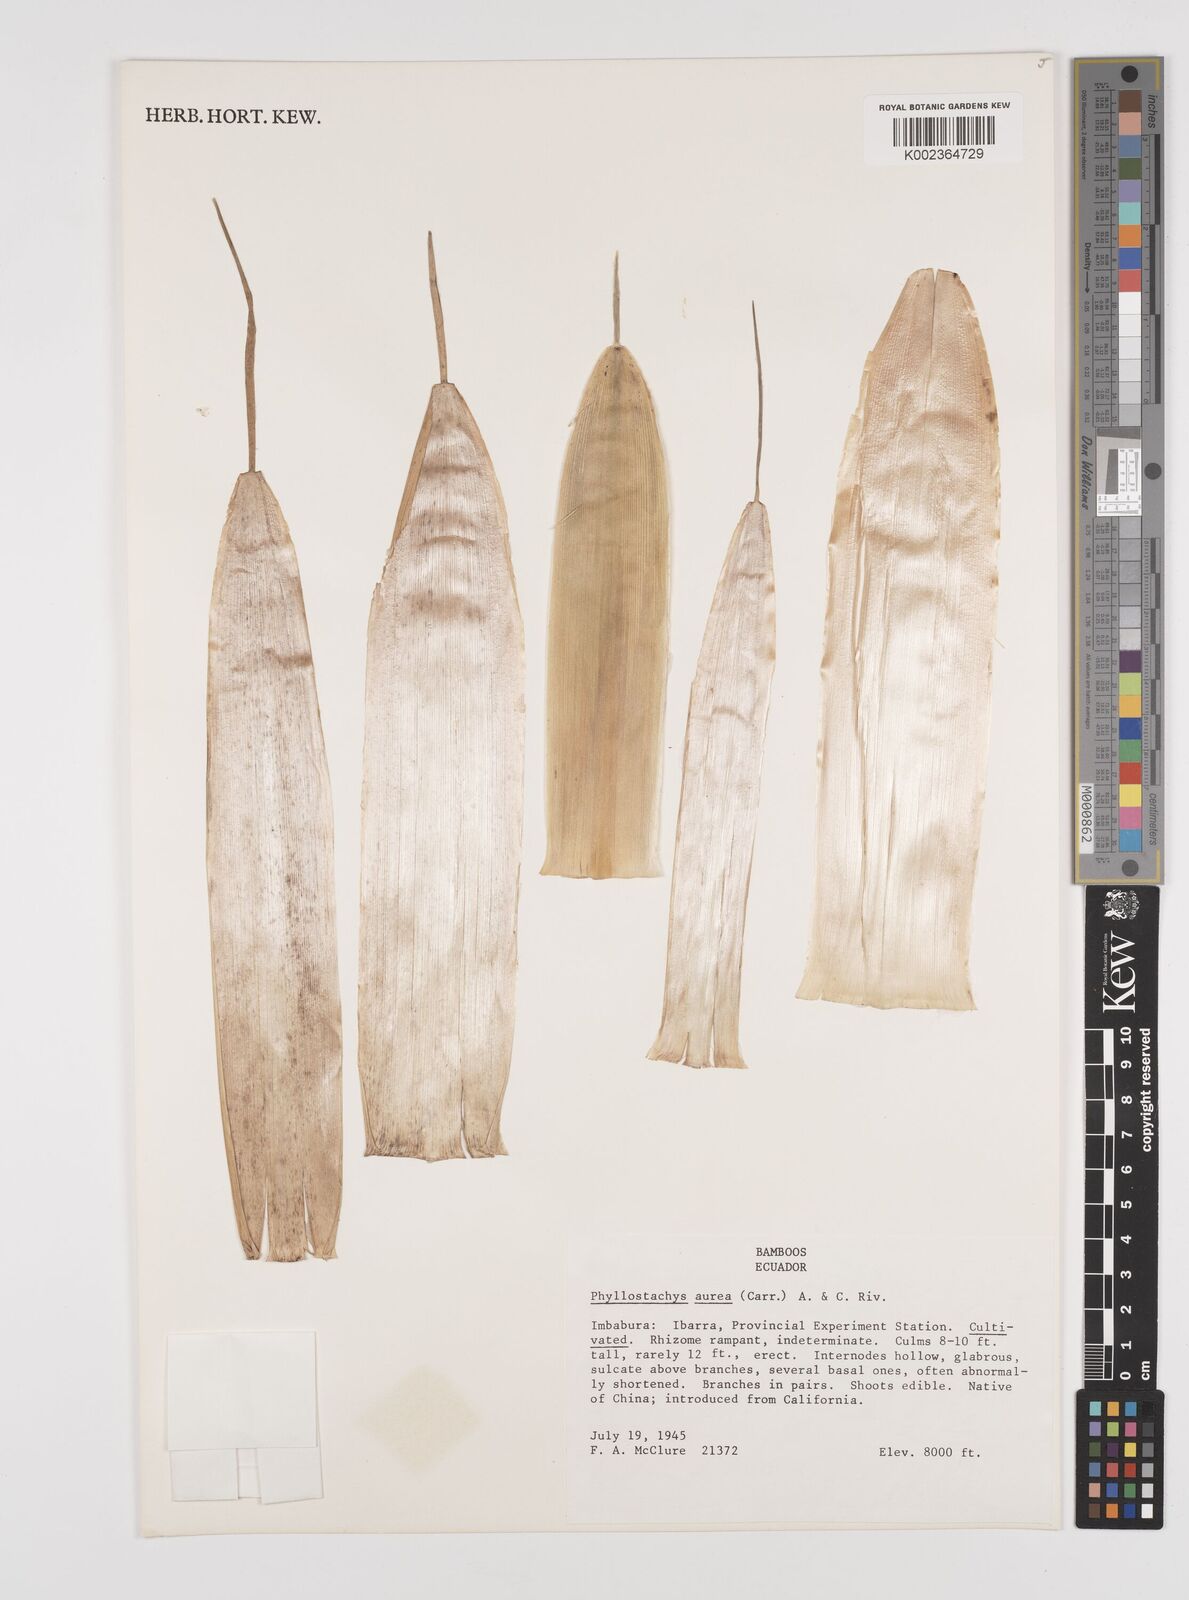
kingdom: Plantae
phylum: Tracheophyta
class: Liliopsida
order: Poales
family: Poaceae
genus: Phyllostachys
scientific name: Phyllostachys aurea
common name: Golden bamboo
